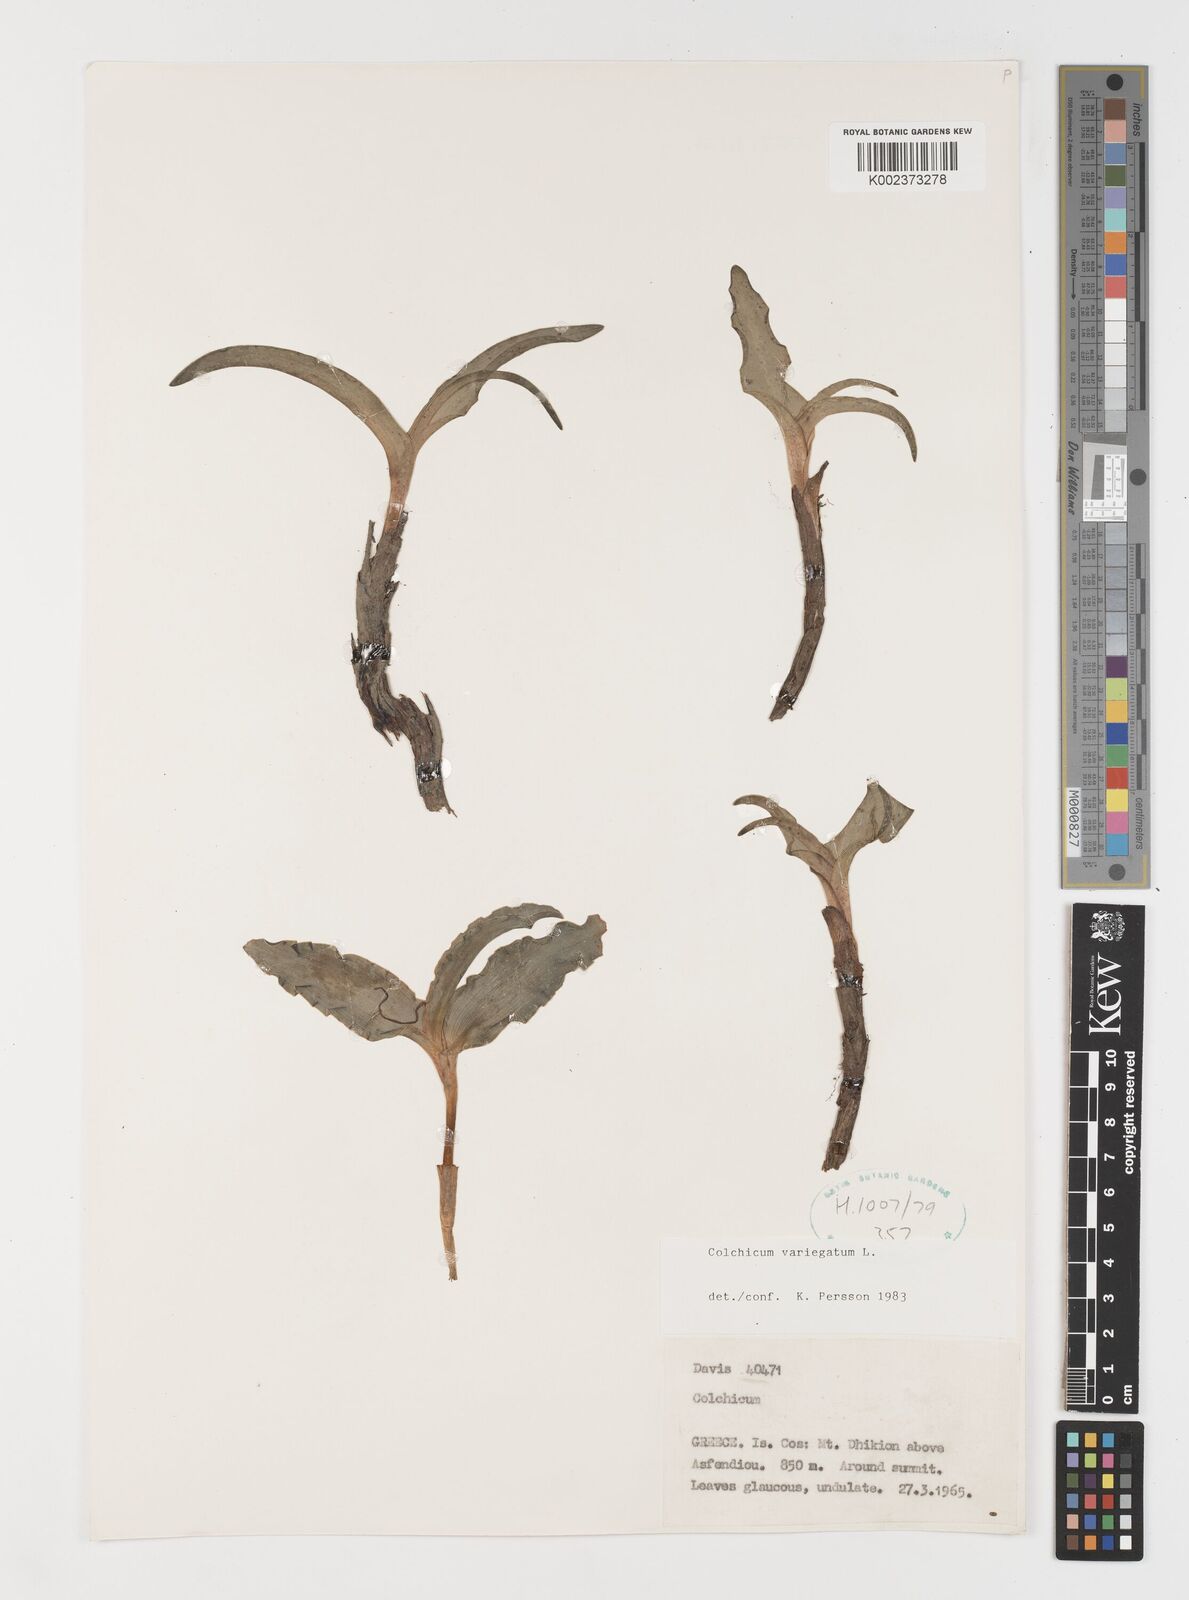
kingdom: Plantae
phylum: Tracheophyta
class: Liliopsida
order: Liliales
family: Colchicaceae
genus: Colchicum
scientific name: Colchicum variegatum
